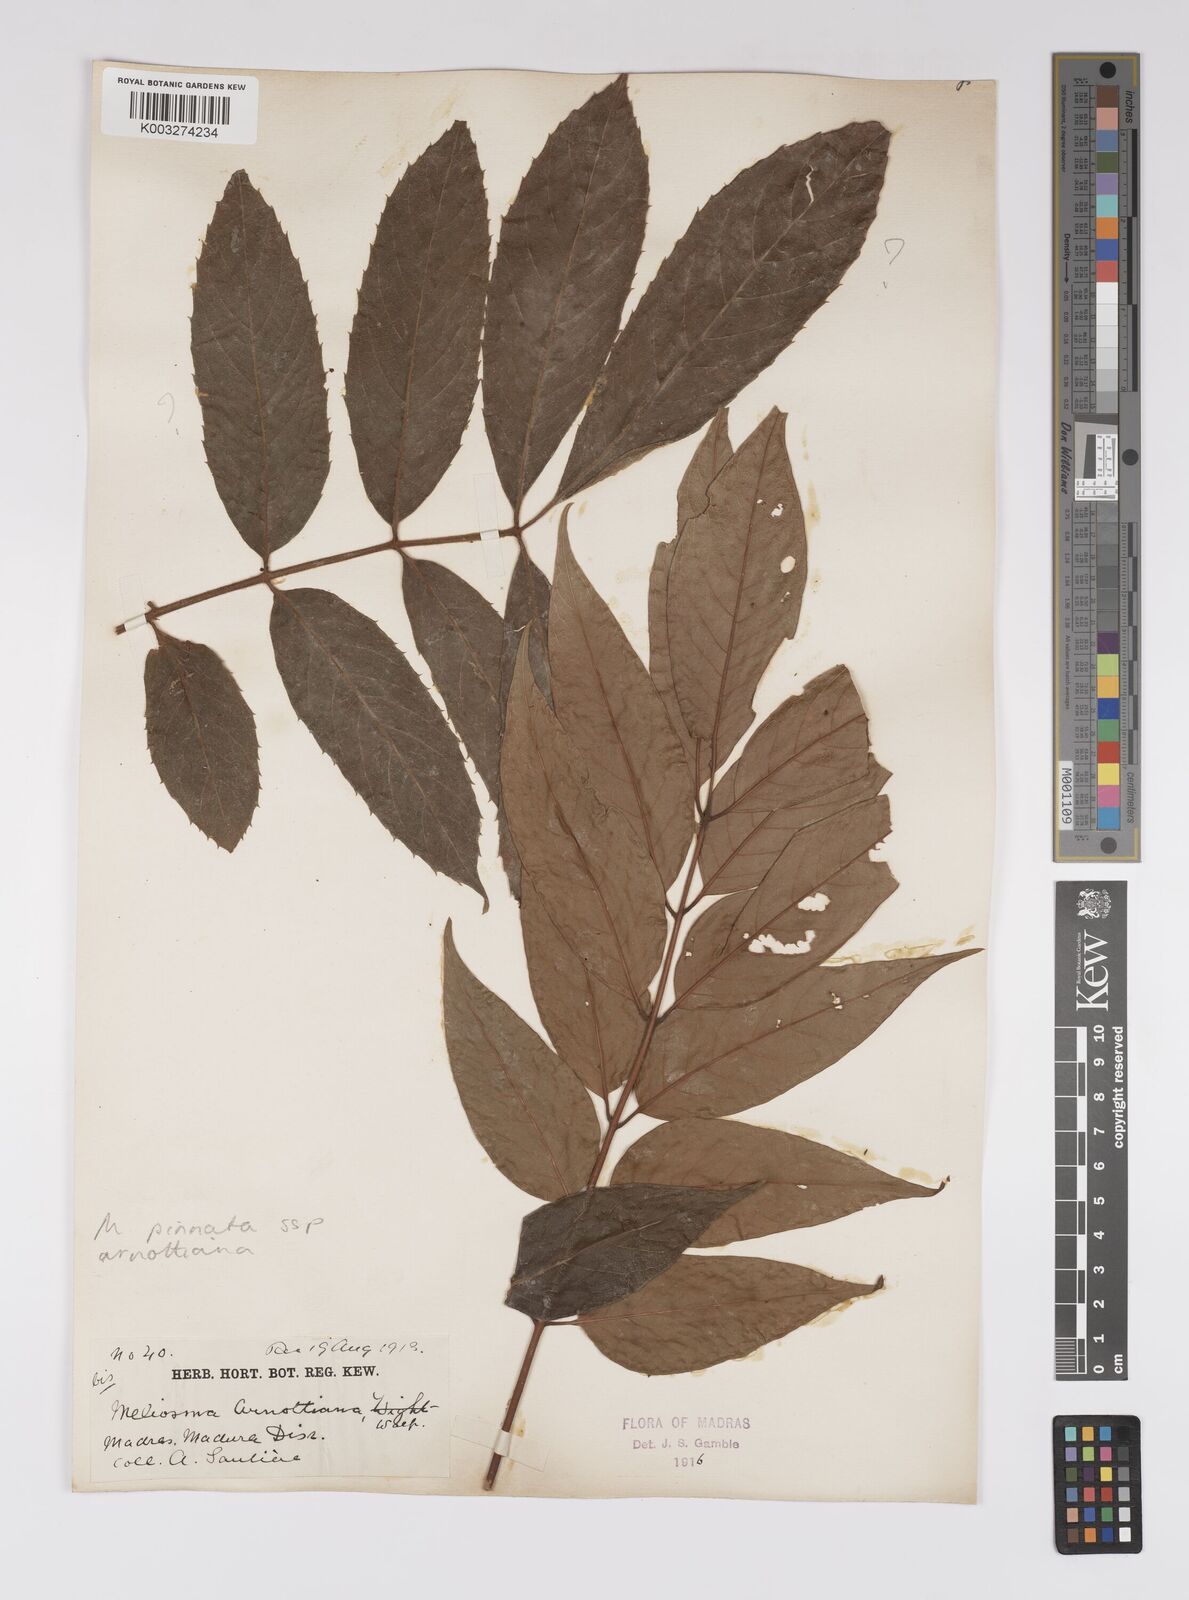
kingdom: Plantae
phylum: Tracheophyta
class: Magnoliopsida
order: Proteales
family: Sabiaceae
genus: Meliosma
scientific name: Meliosma rhoifolia
